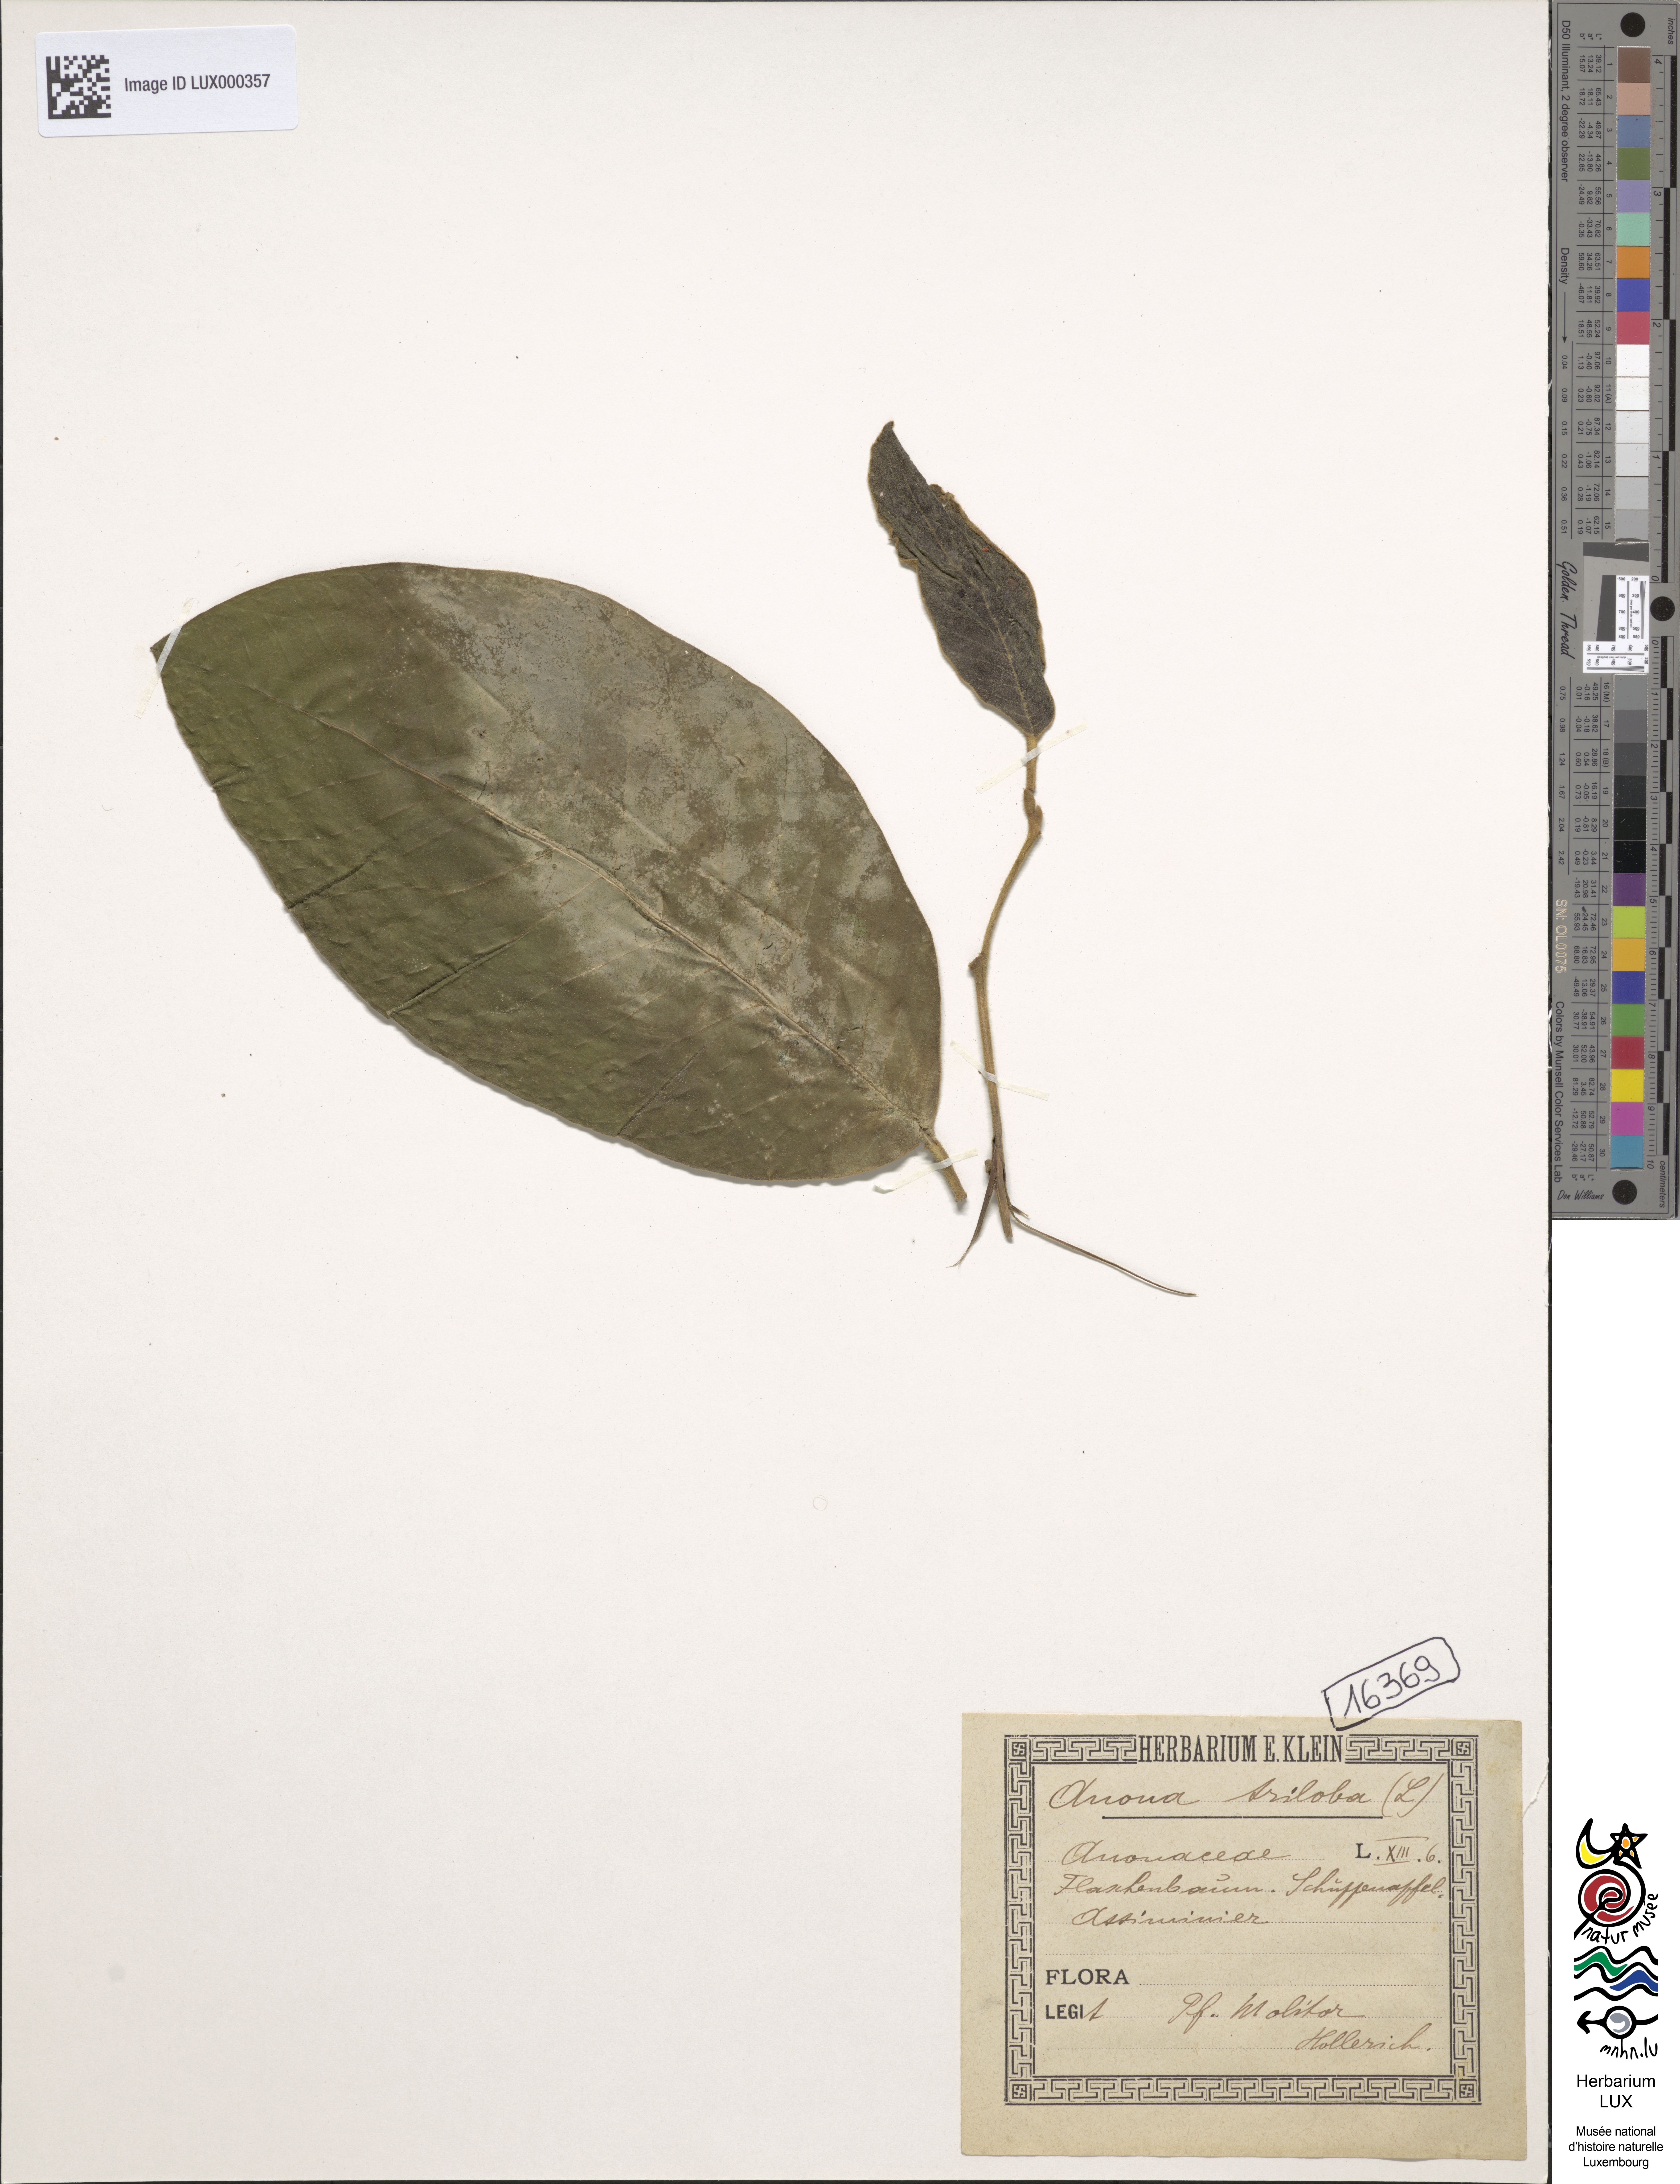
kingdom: Plantae
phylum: Tracheophyta
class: Magnoliopsida
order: Magnoliales
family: Annonaceae
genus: Asimina
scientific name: Asimina triloba
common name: Dog-banana
